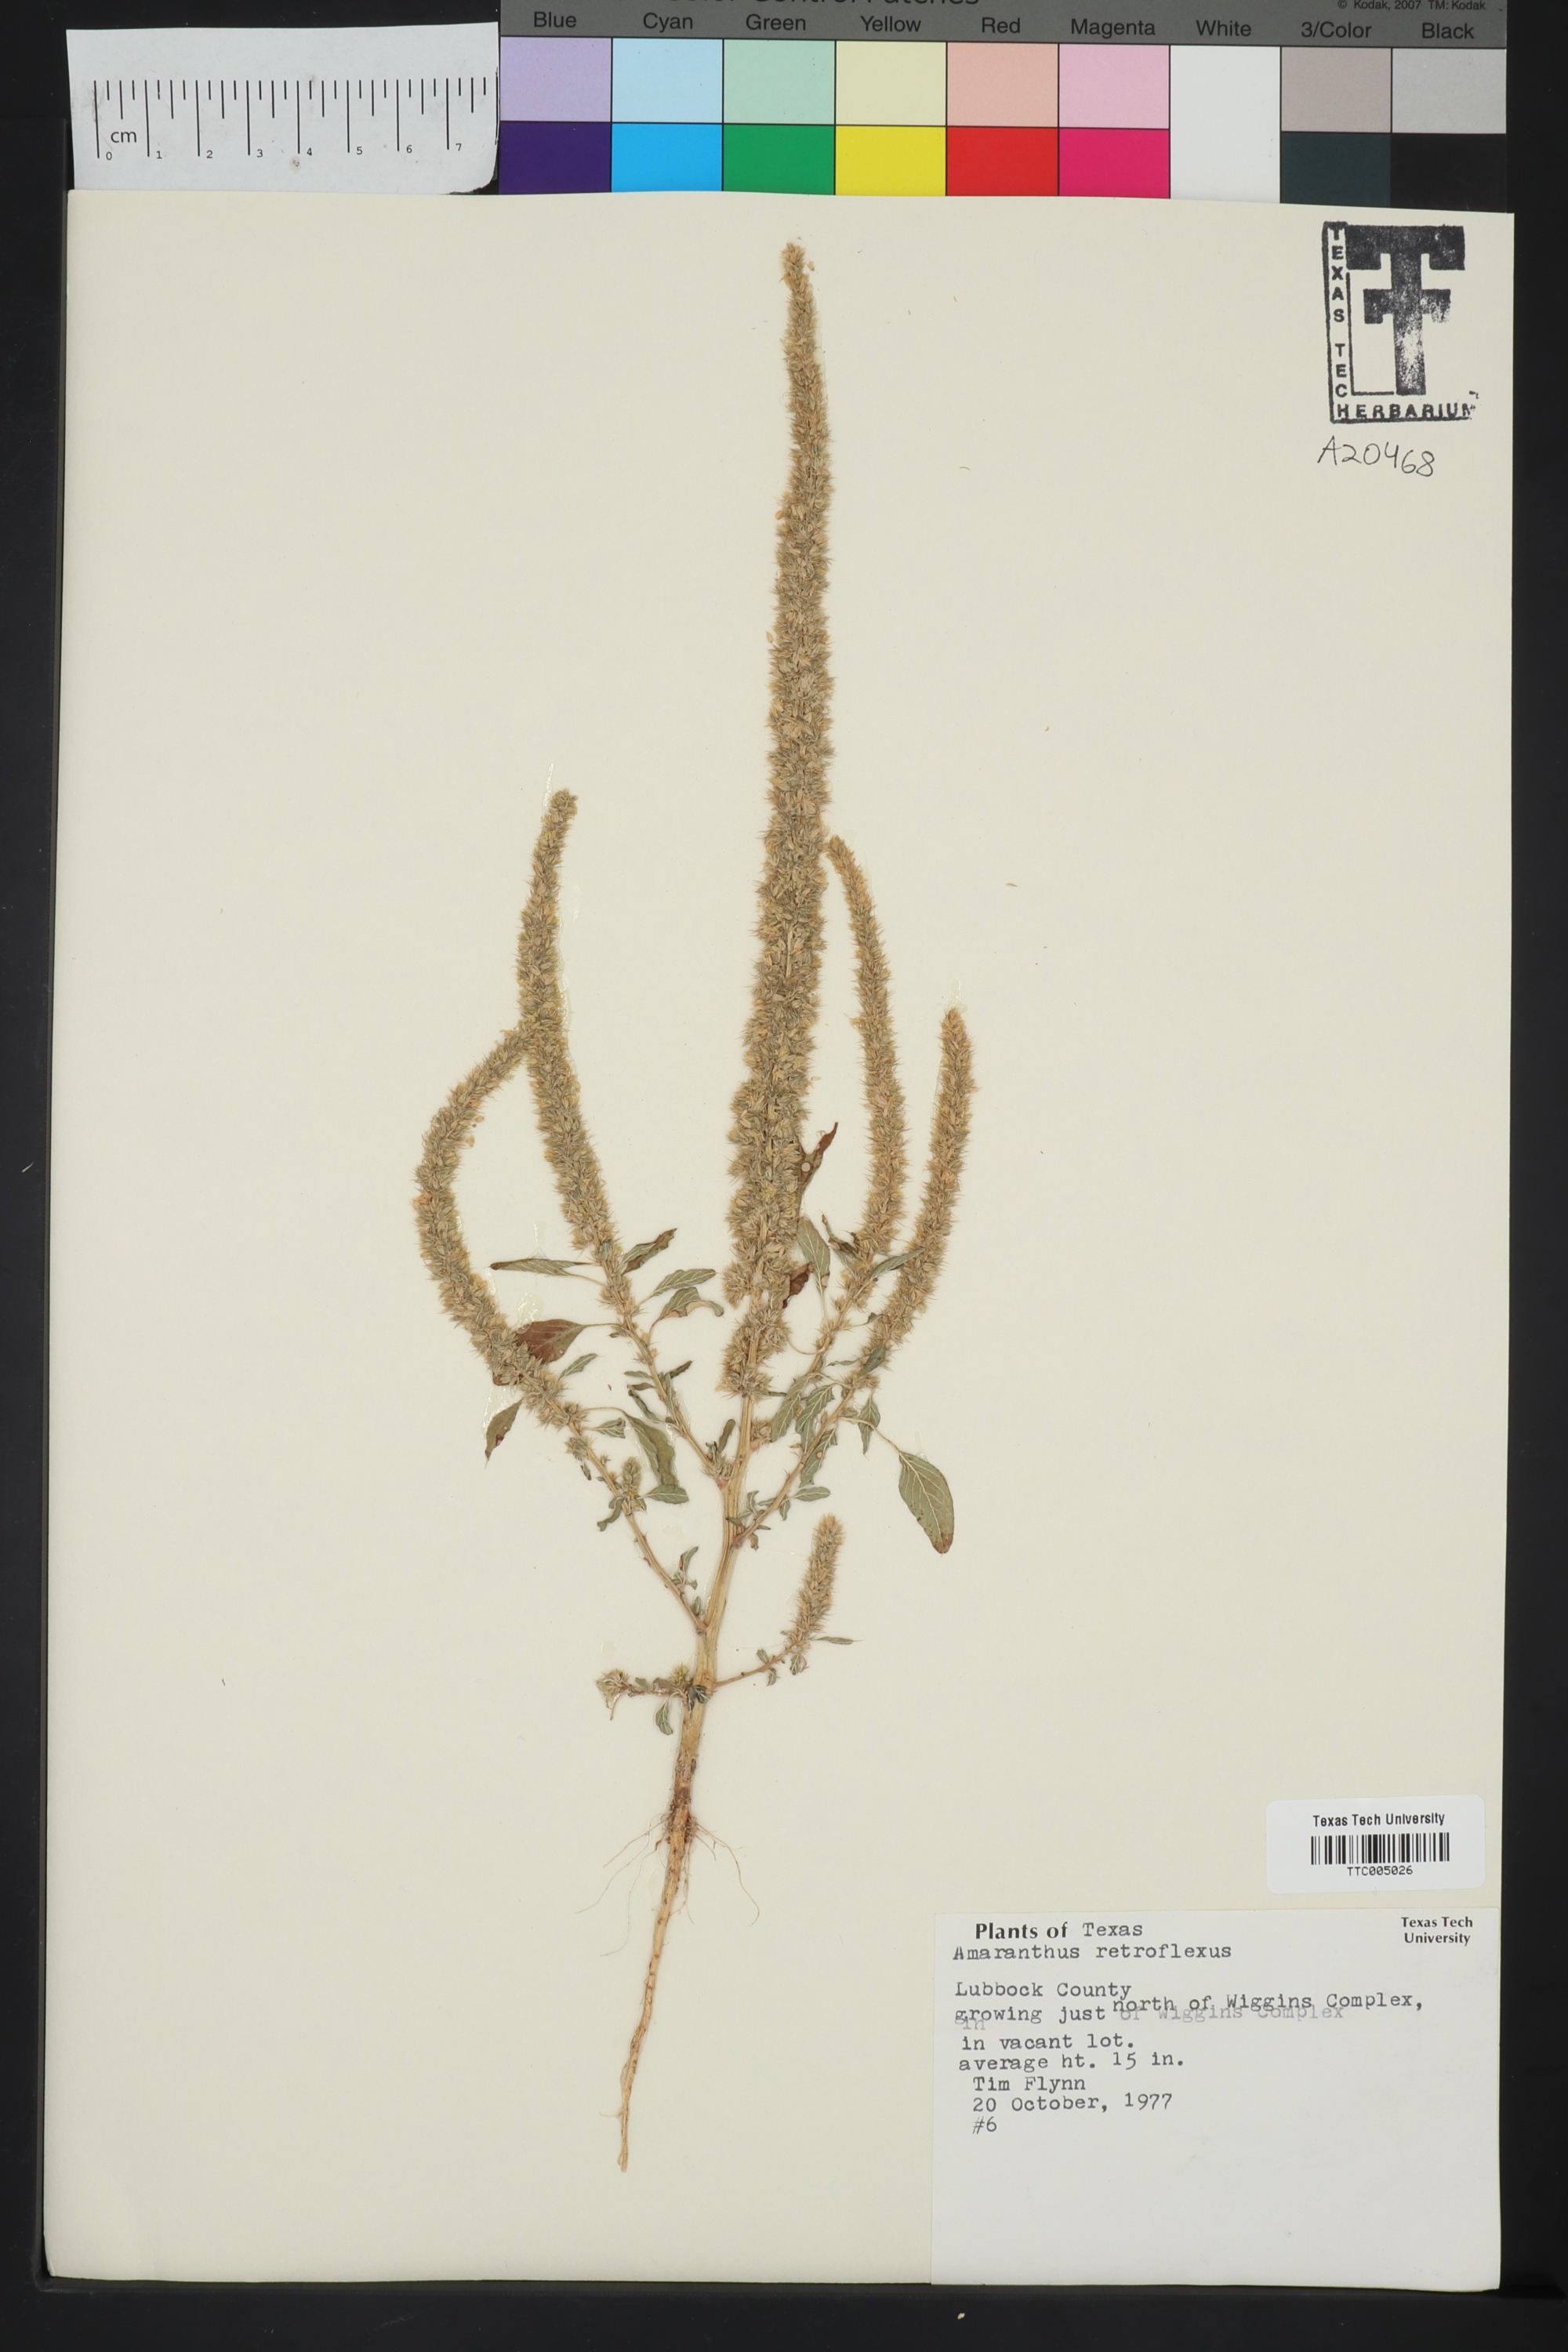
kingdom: Plantae
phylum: Tracheophyta
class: Magnoliopsida
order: Caryophyllales
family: Amaranthaceae
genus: Amaranthus
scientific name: Amaranthus retroflexus
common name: Redroot amaranth
